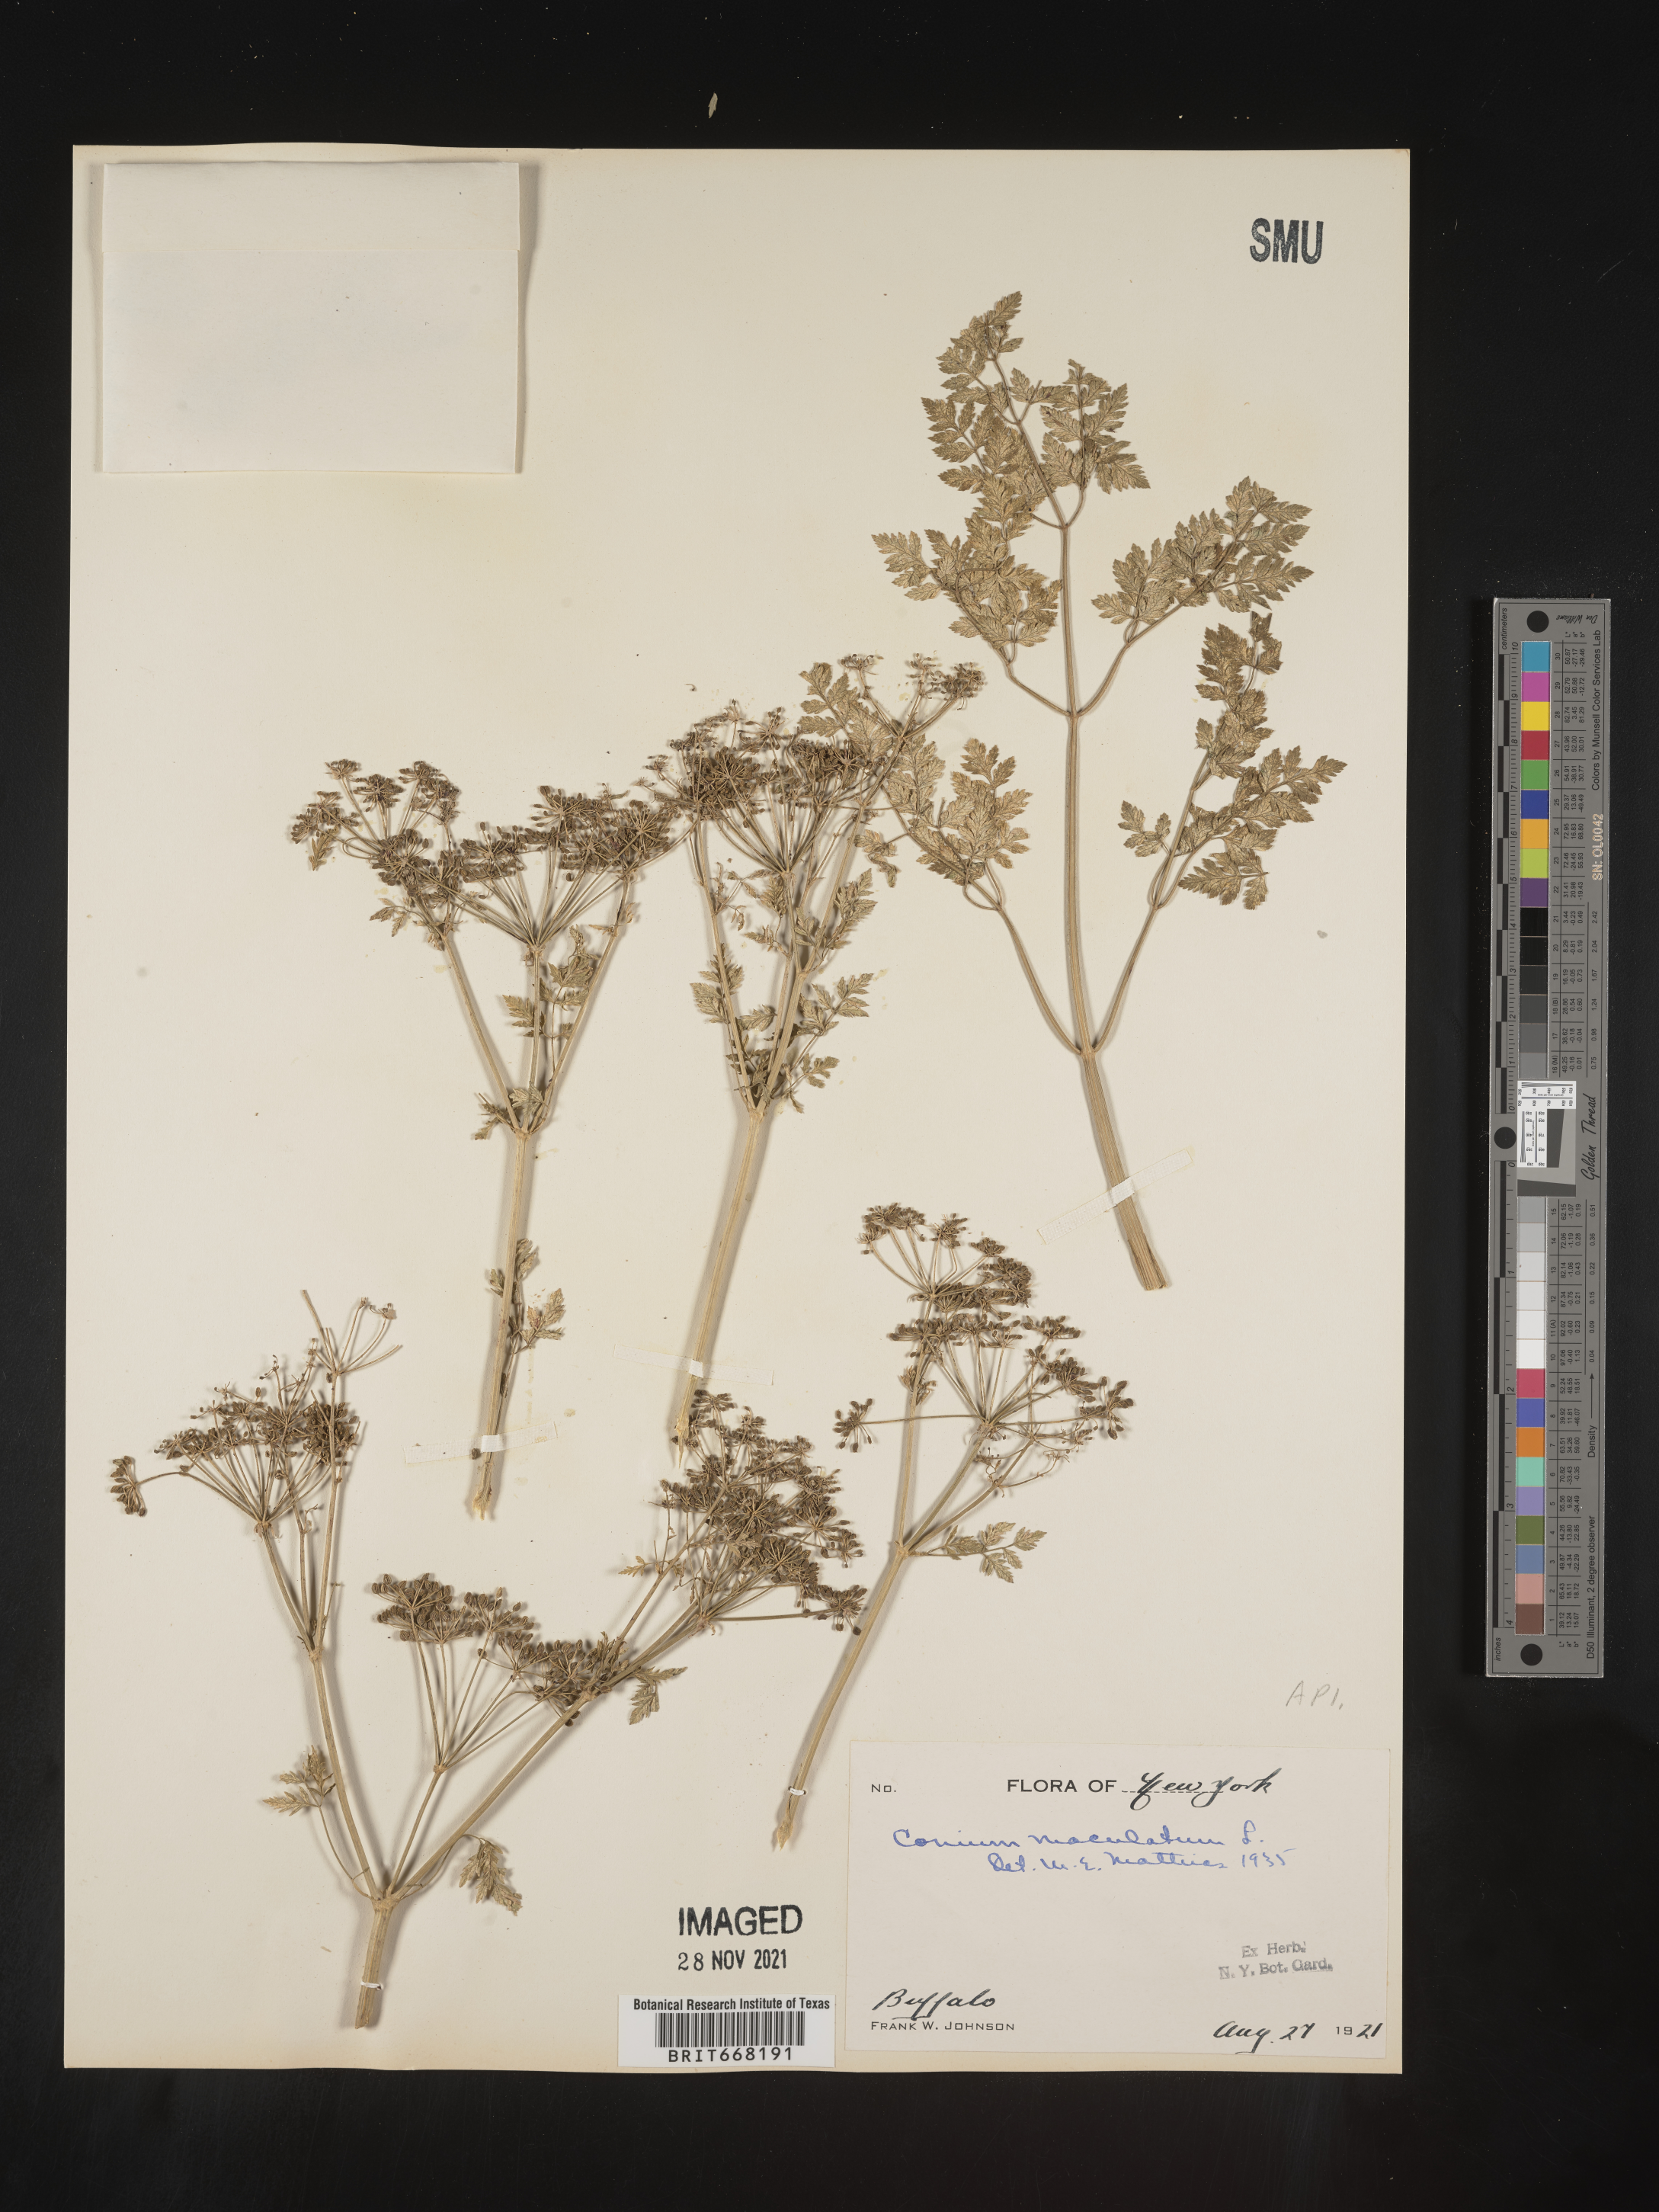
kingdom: Plantae
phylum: Tracheophyta
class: Magnoliopsida
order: Apiales
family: Apiaceae
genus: Conium
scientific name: Conium maculatum
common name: Hemlock
